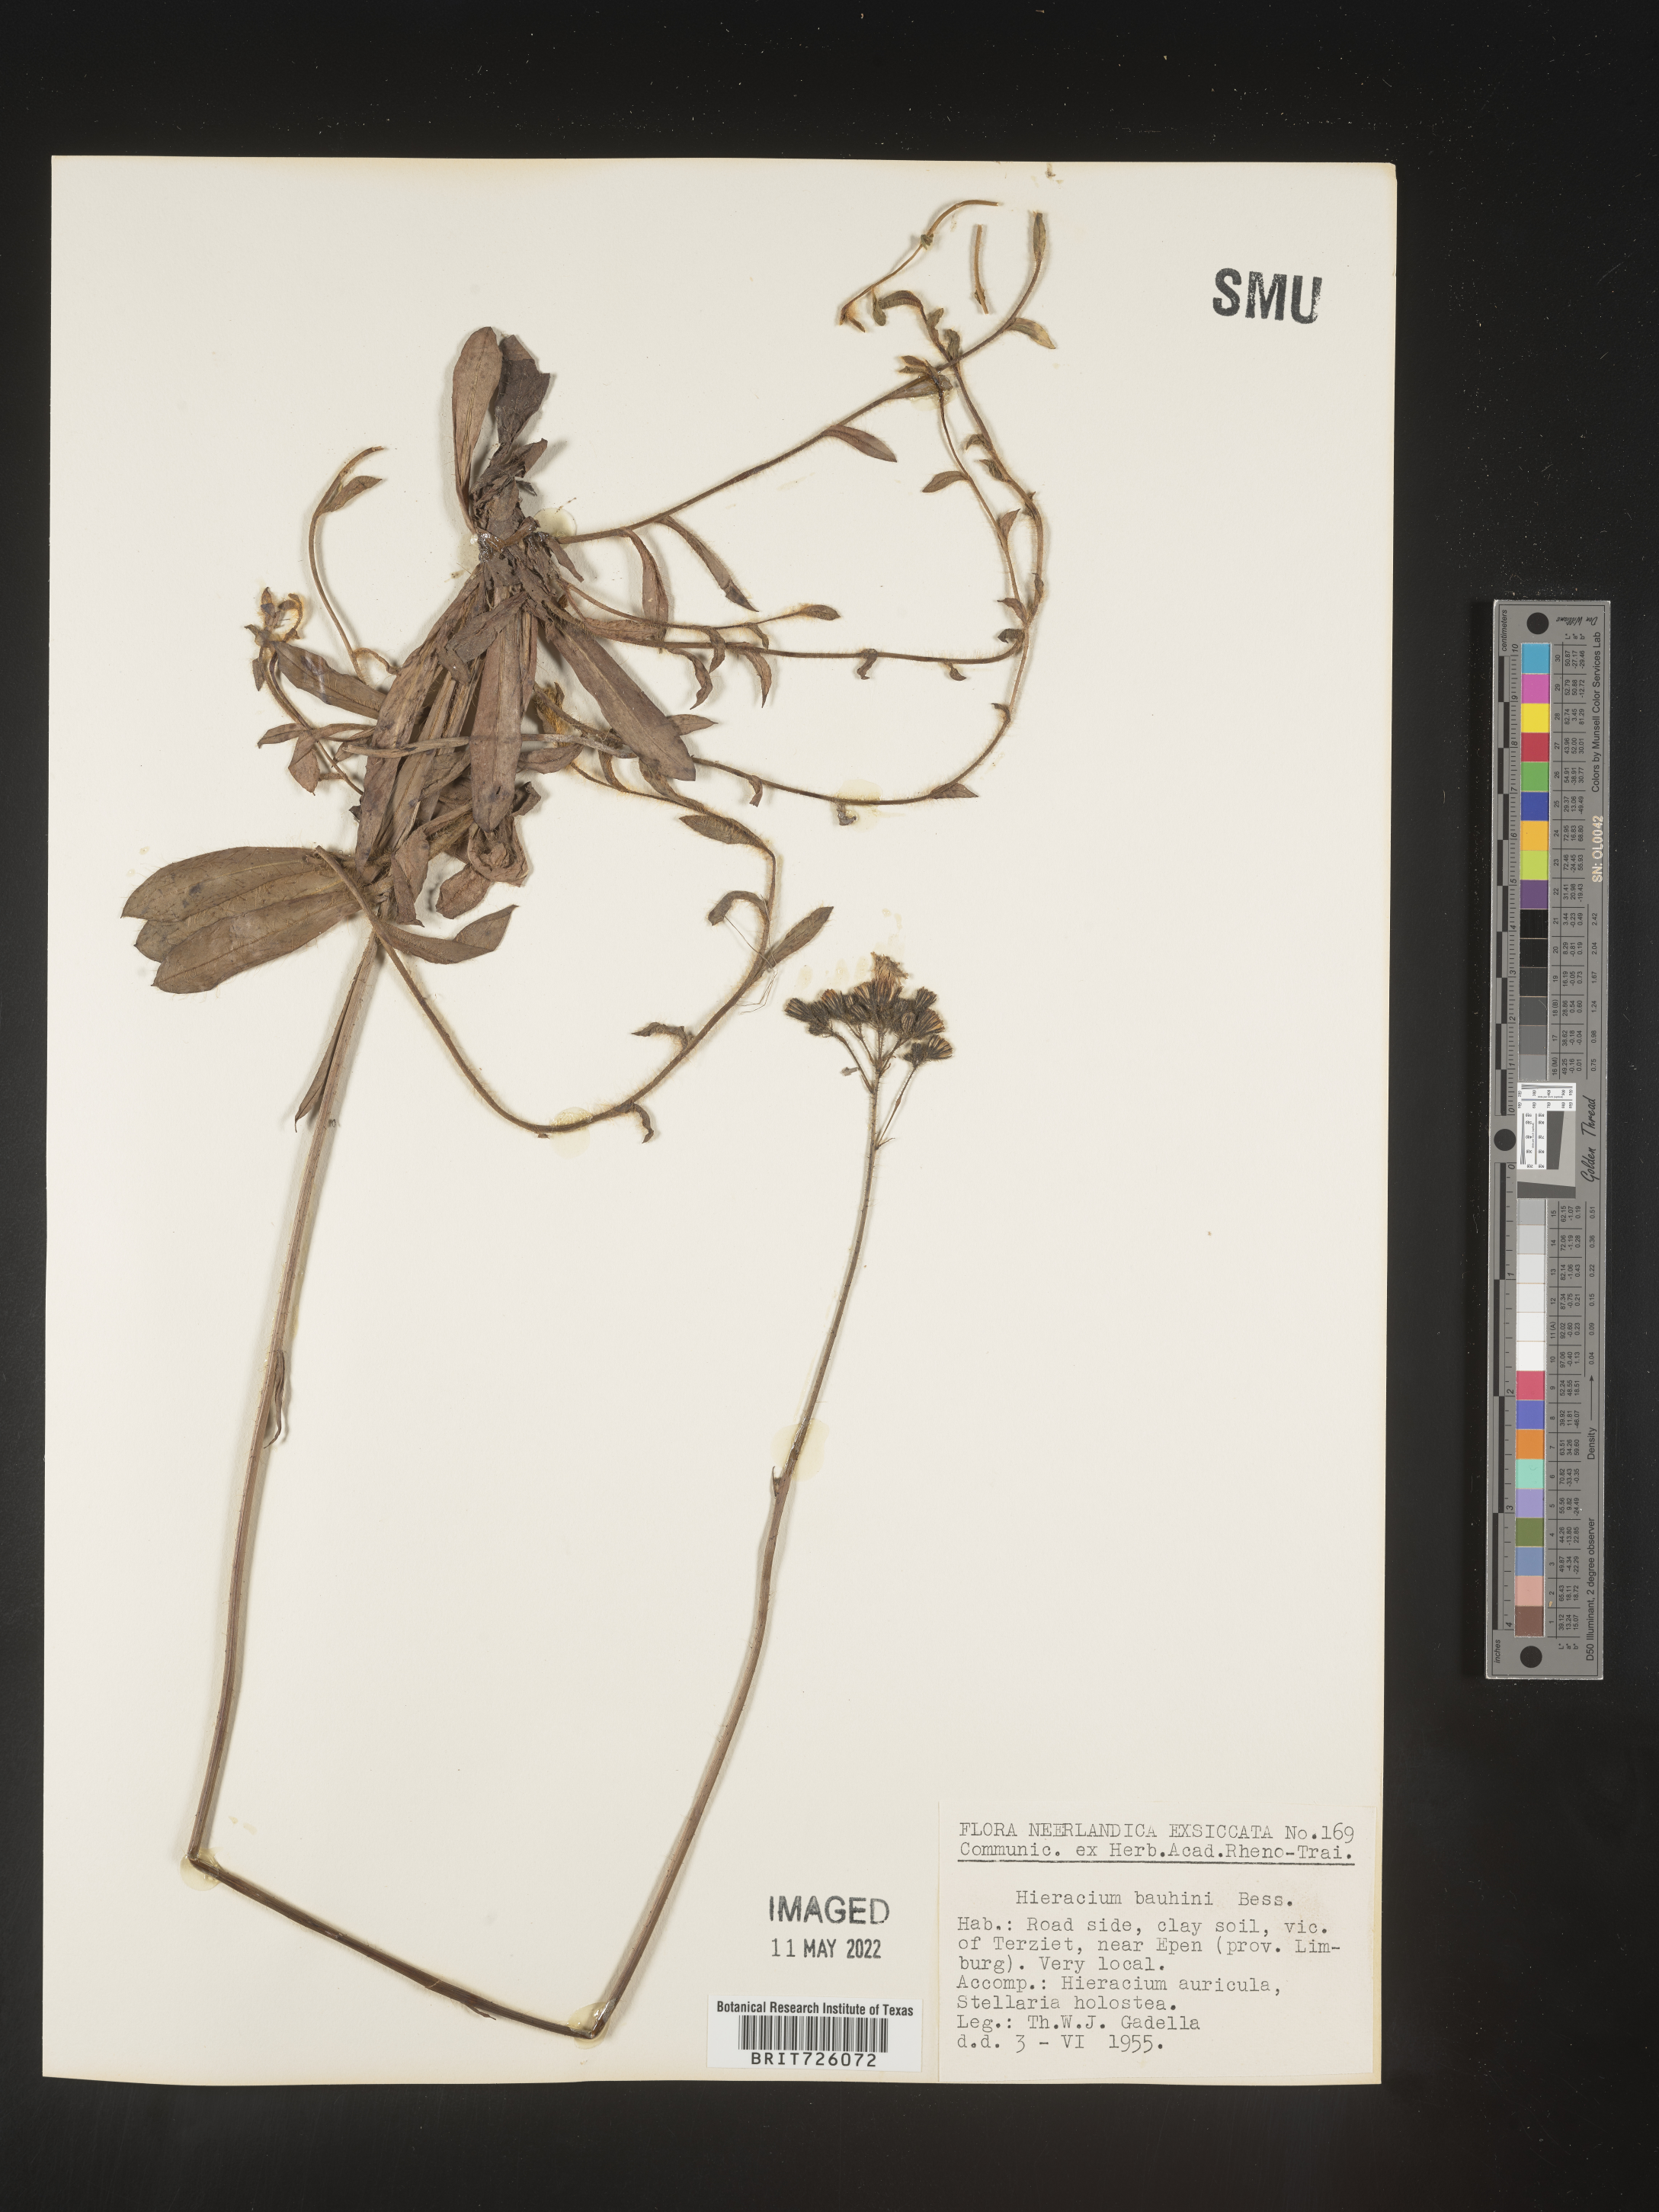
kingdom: Plantae
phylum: Tracheophyta
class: Magnoliopsida
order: Asterales
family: Asteraceae
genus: Hieracium
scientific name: Hieracium
